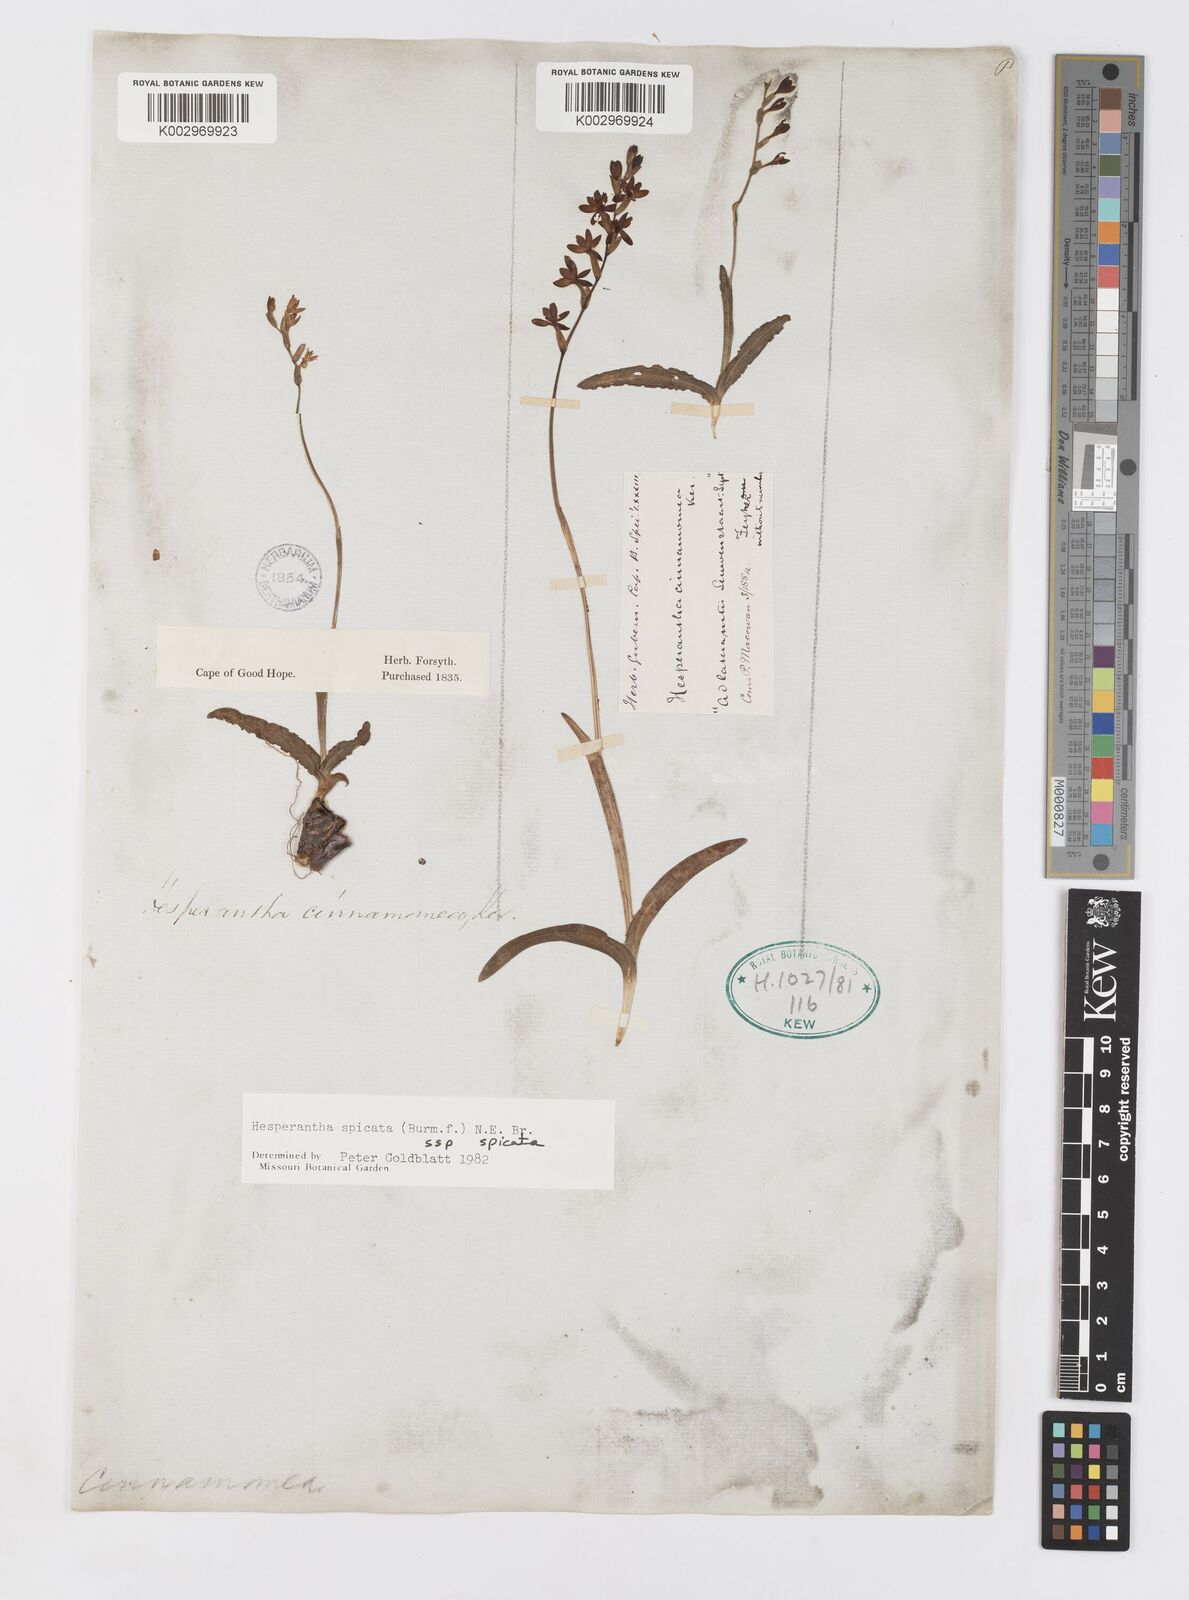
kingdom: Plantae
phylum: Tracheophyta
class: Liliopsida
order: Asparagales
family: Iridaceae
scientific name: Iridaceae
